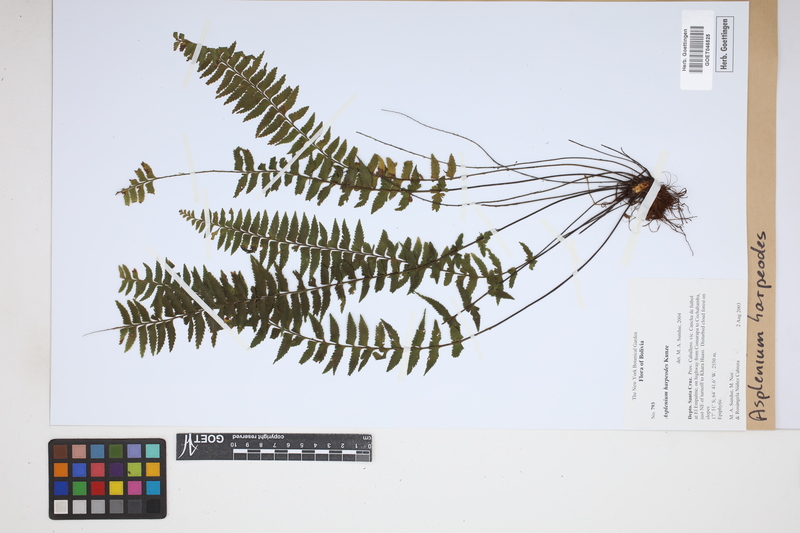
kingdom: Plantae
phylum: Tracheophyta
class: Polypodiopsida
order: Polypodiales
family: Aspleniaceae
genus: Asplenium
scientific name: Asplenium harpeodes
